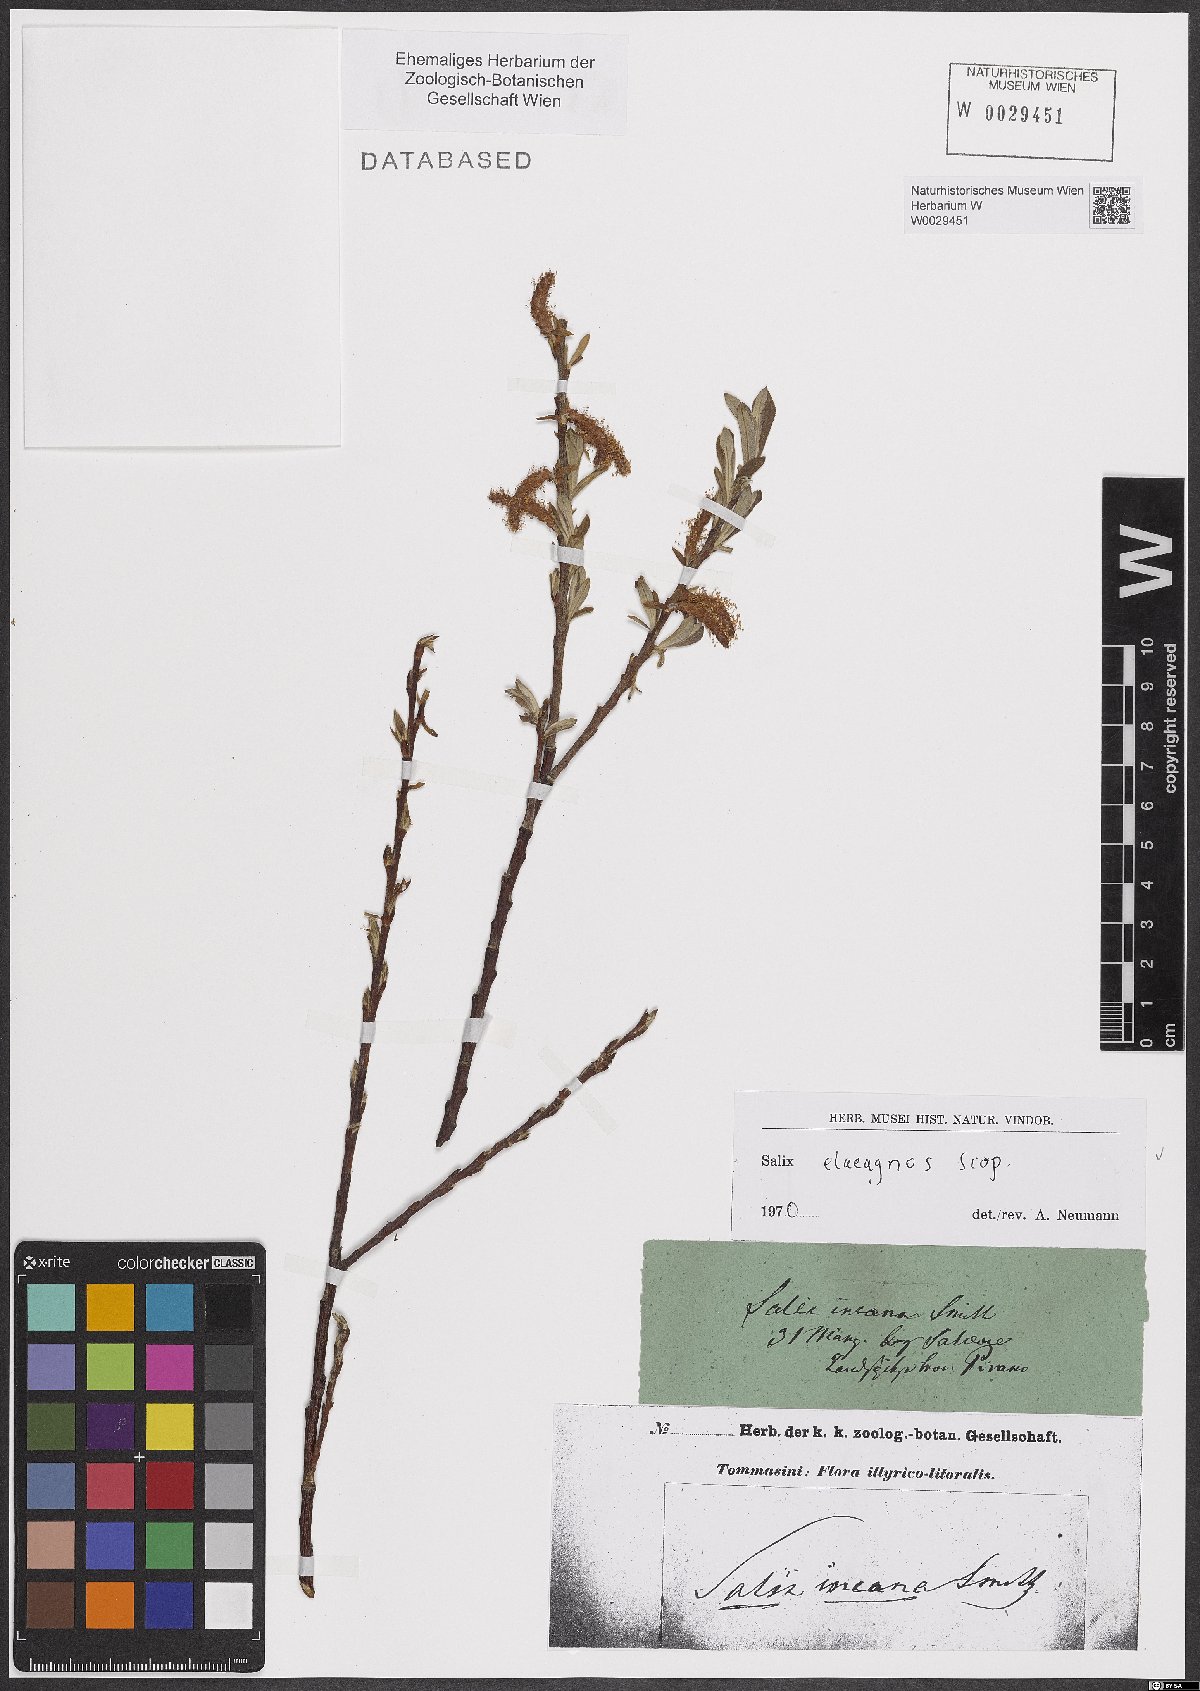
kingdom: Plantae
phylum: Tracheophyta
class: Magnoliopsida
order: Malpighiales
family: Salicaceae
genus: Salix
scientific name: Salix eleagnos
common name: Elaeagnus willow
